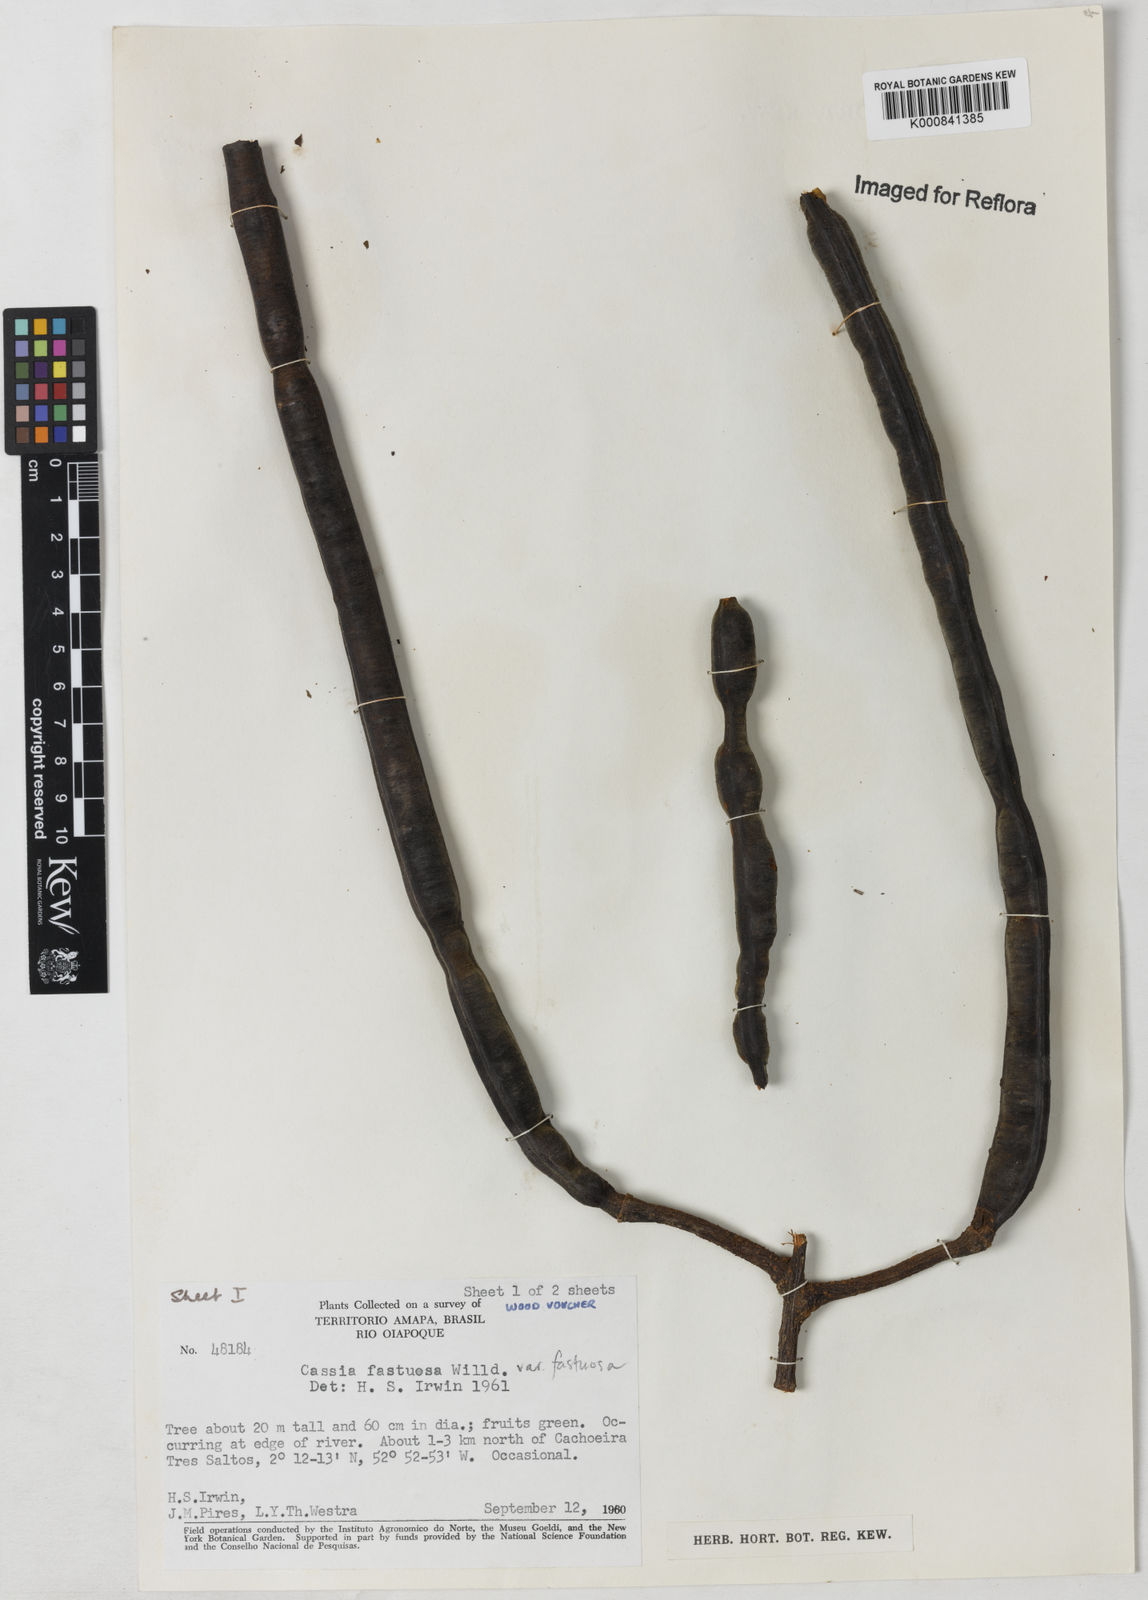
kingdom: Plantae
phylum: Tracheophyta
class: Magnoliopsida
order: Fabales
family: Fabaceae
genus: Cassia
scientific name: Cassia
